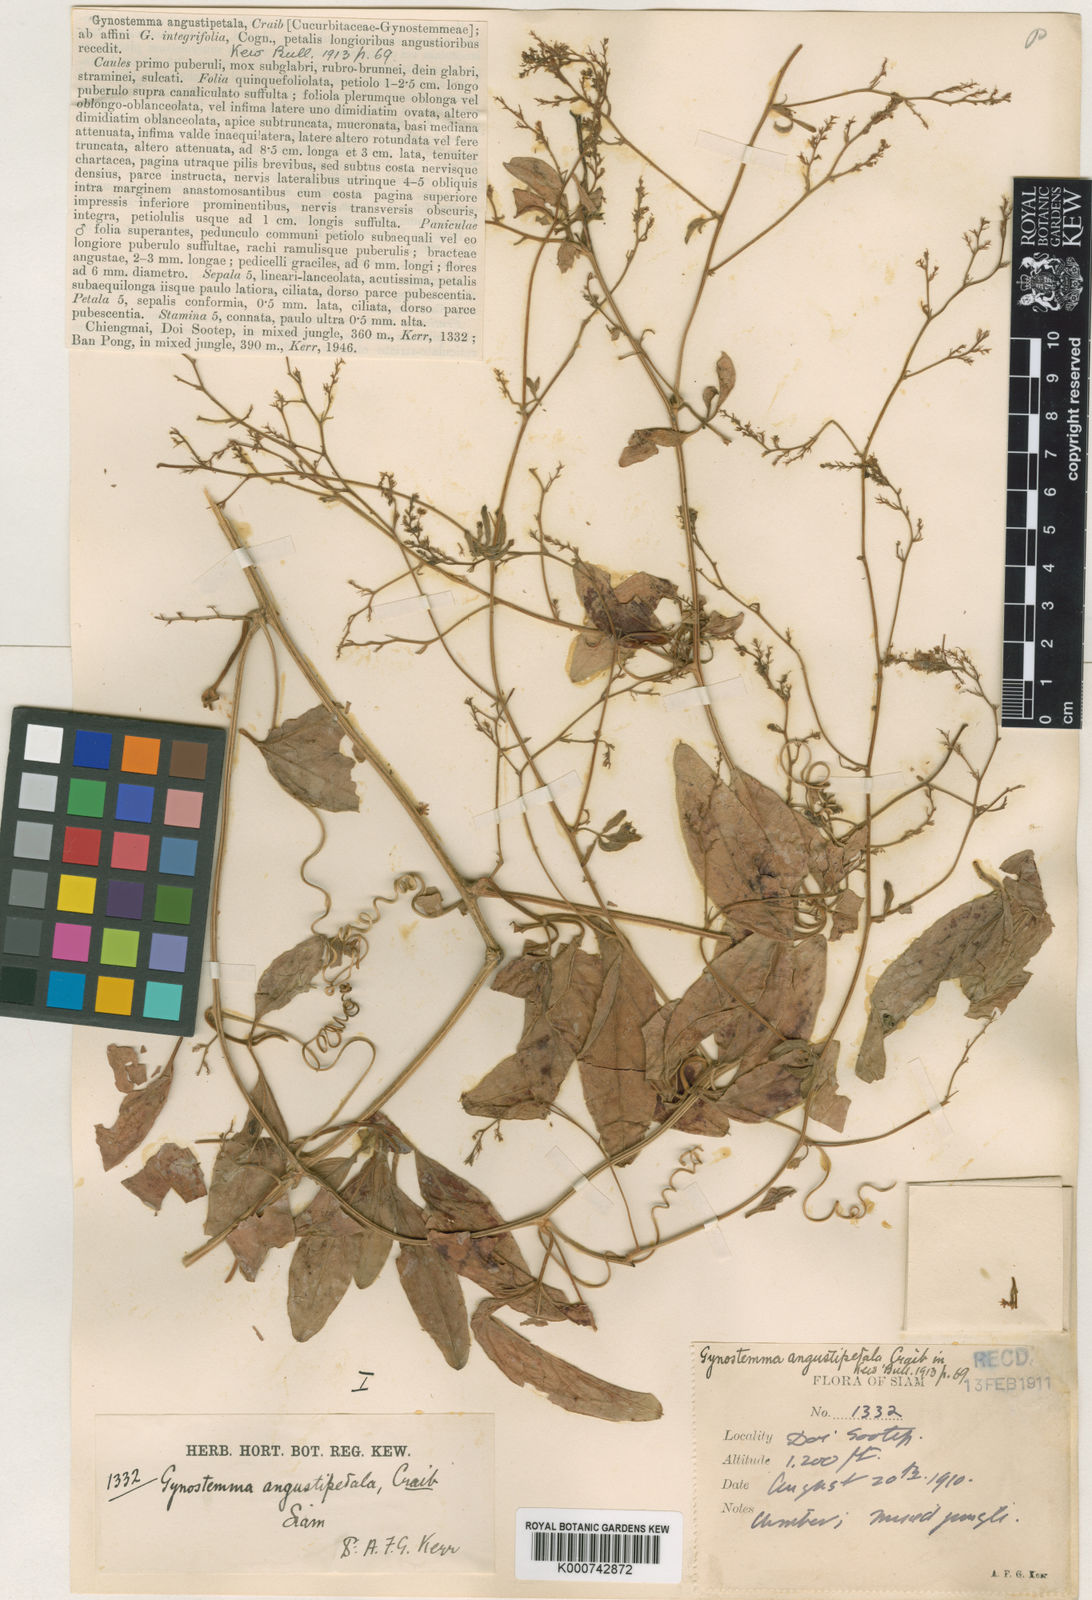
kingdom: Plantae
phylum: Tracheophyta
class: Magnoliopsida
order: Cucurbitales
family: Cucurbitaceae
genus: Neoalsomitra
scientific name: Neoalsomitra angustipetala
